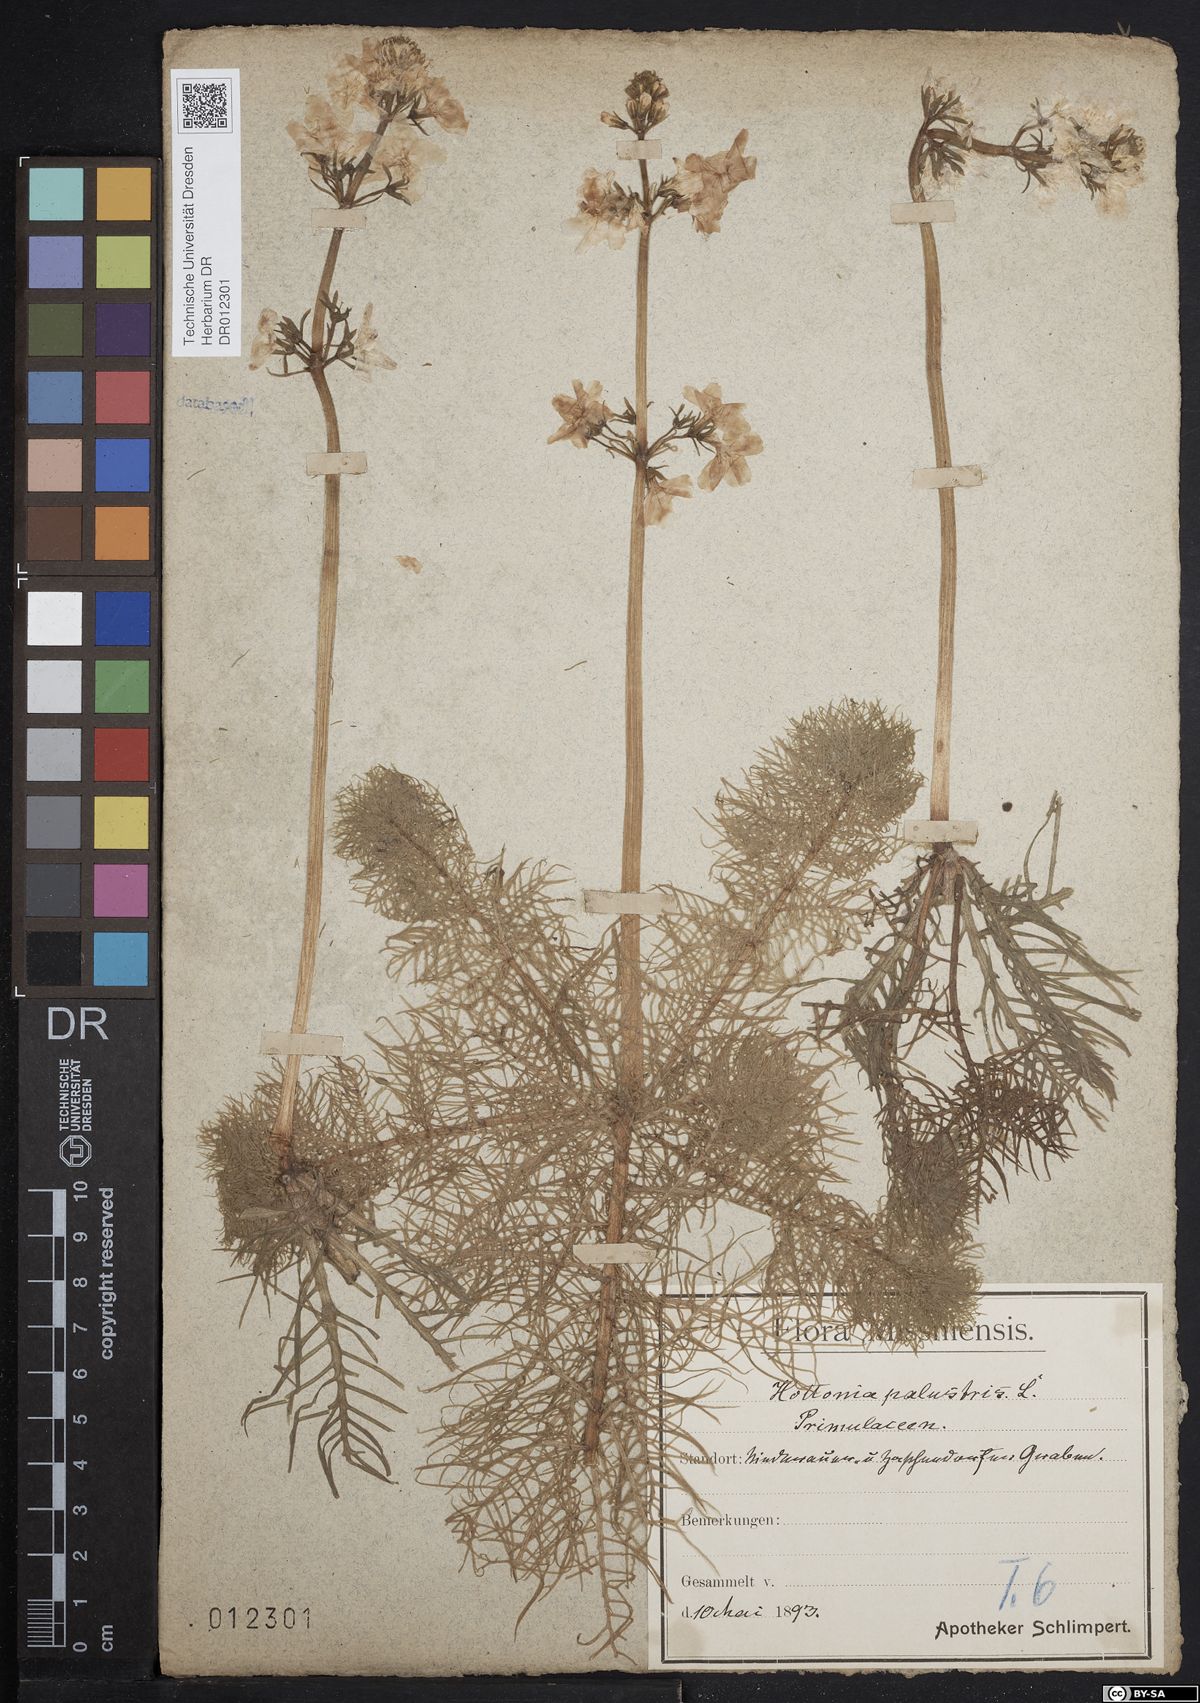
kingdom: Plantae
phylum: Tracheophyta
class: Magnoliopsida
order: Ericales
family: Primulaceae
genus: Hottonia
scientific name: Hottonia palustris
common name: Water-violet
